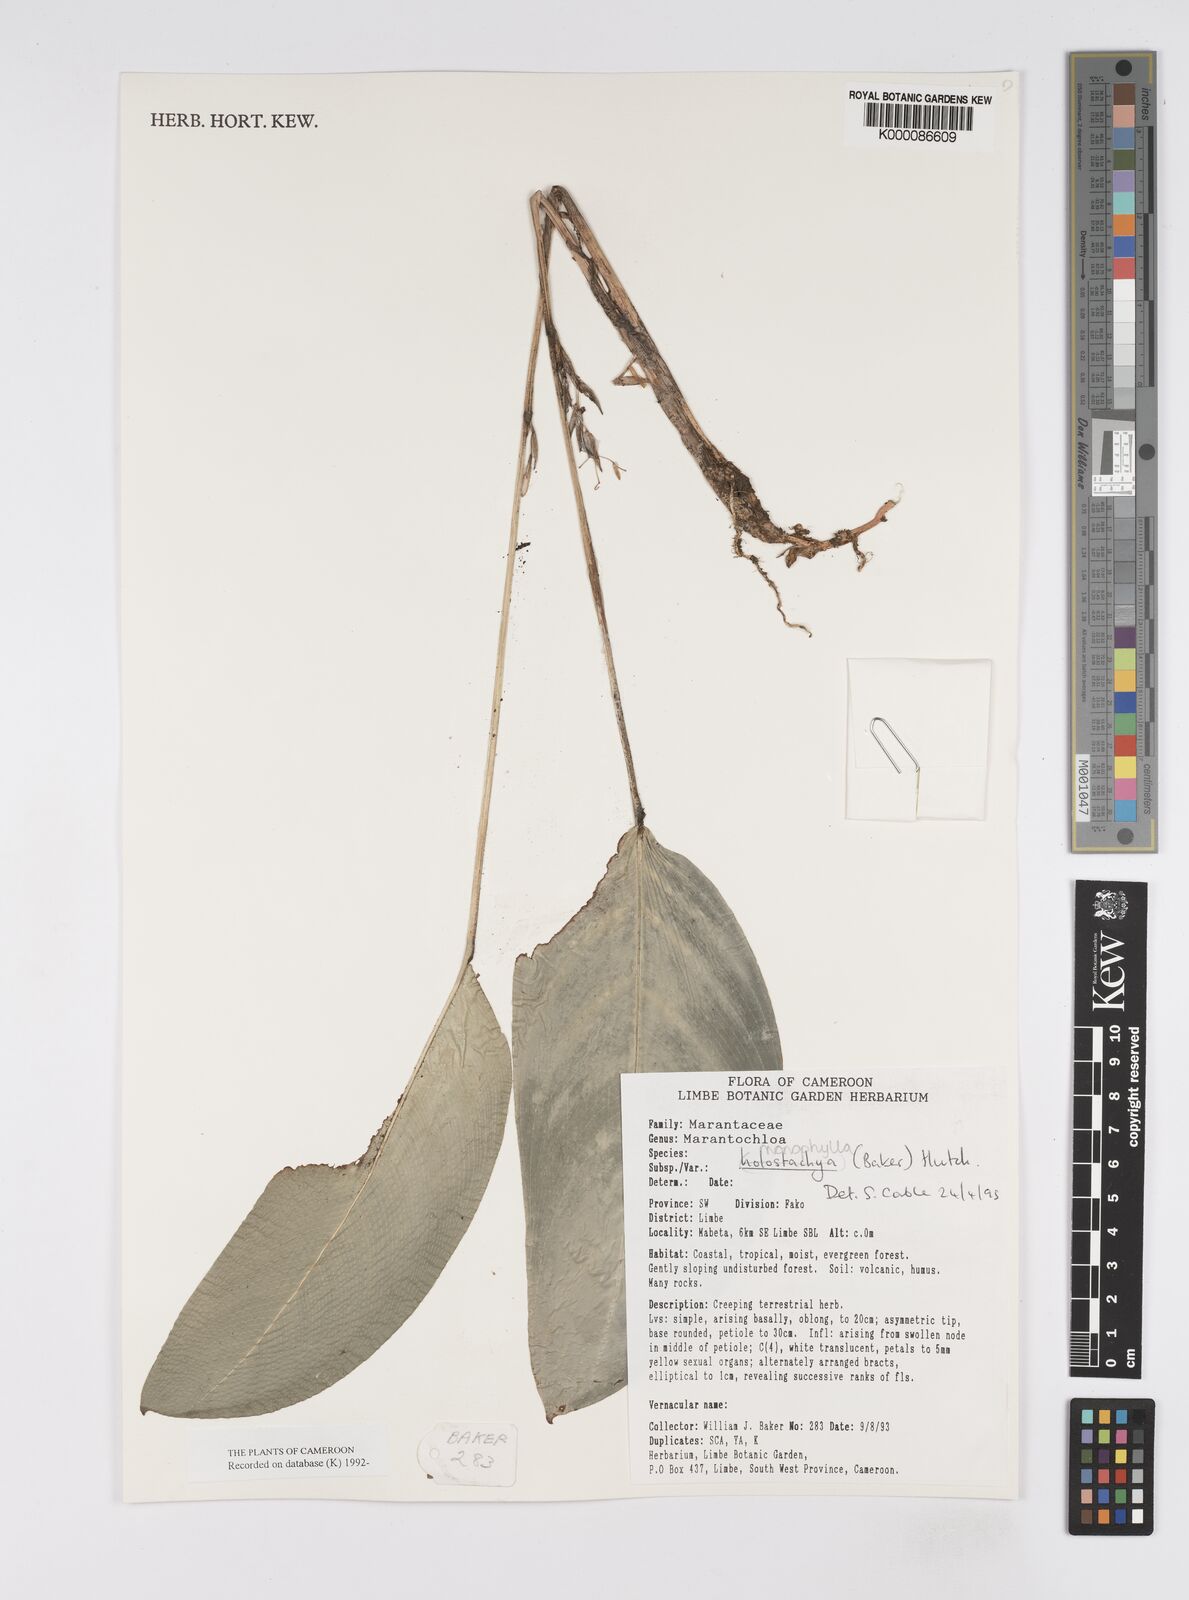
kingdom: Plantae
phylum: Tracheophyta
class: Liliopsida
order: Zingiberales
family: Marantaceae
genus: Marantochloa
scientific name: Marantochloa monophylla
